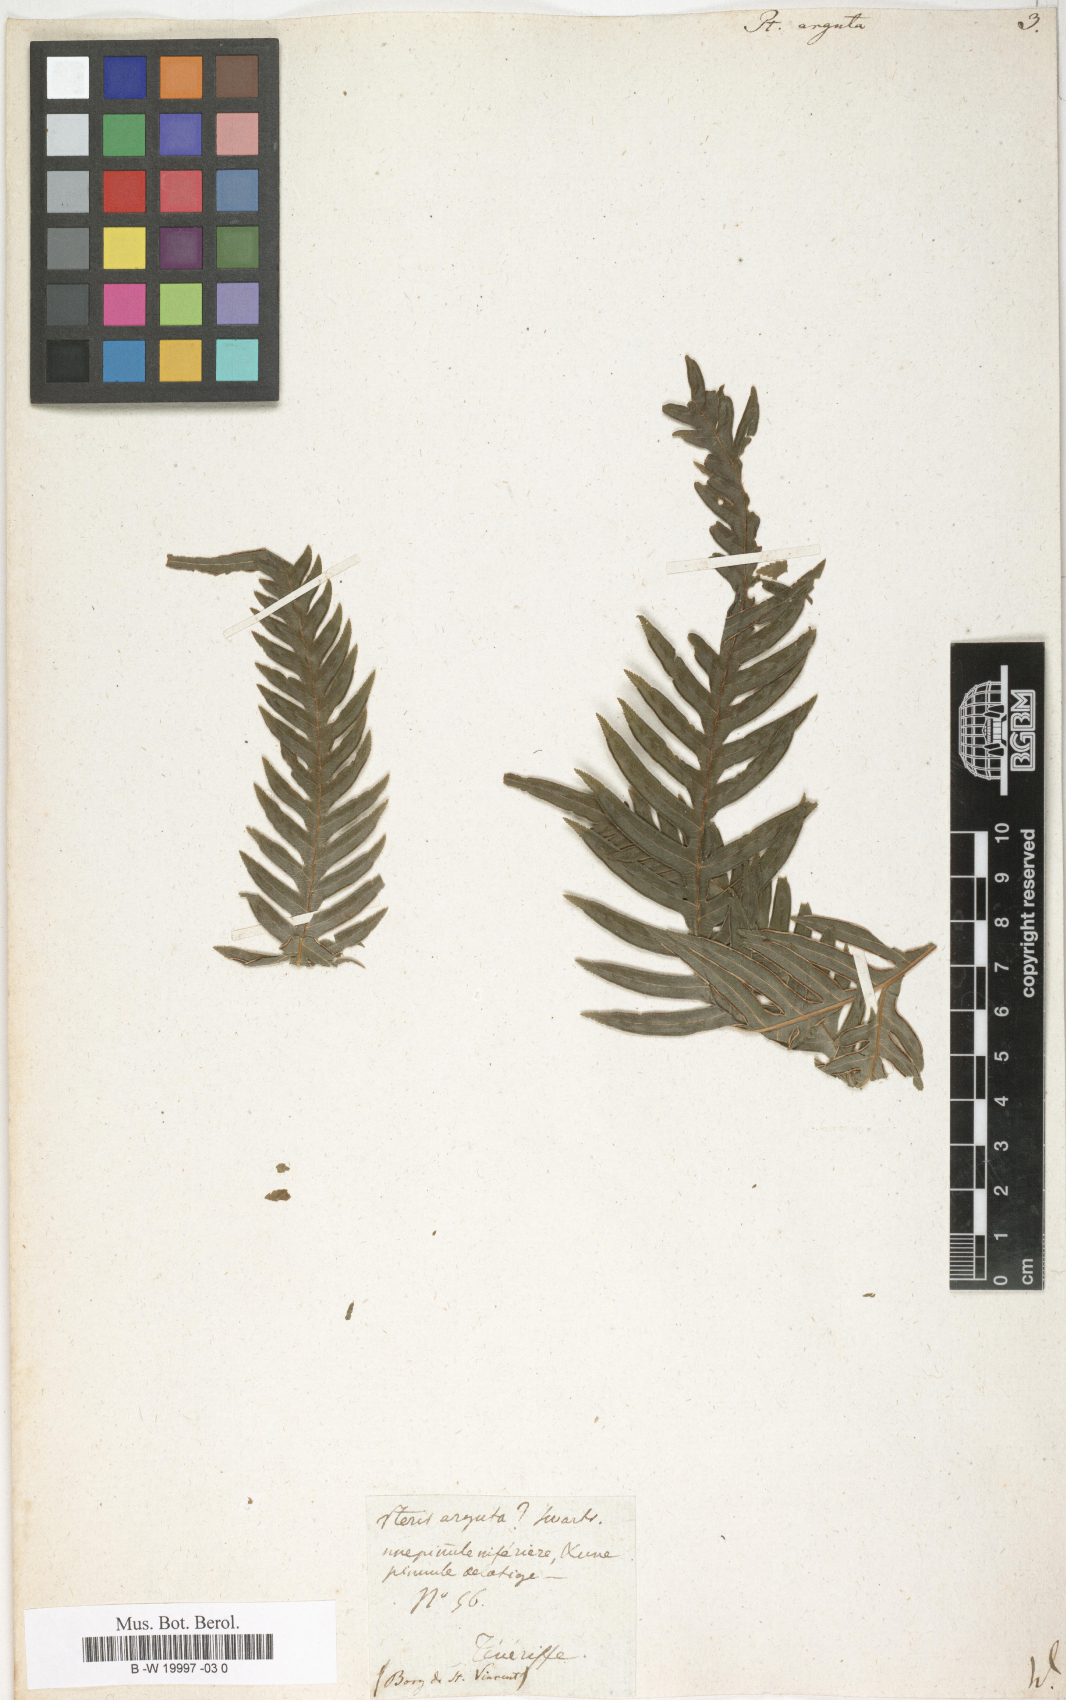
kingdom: Plantae
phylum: Tracheophyta
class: Polypodiopsida
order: Polypodiales
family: Pteridaceae
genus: Pteris
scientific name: Pteris
